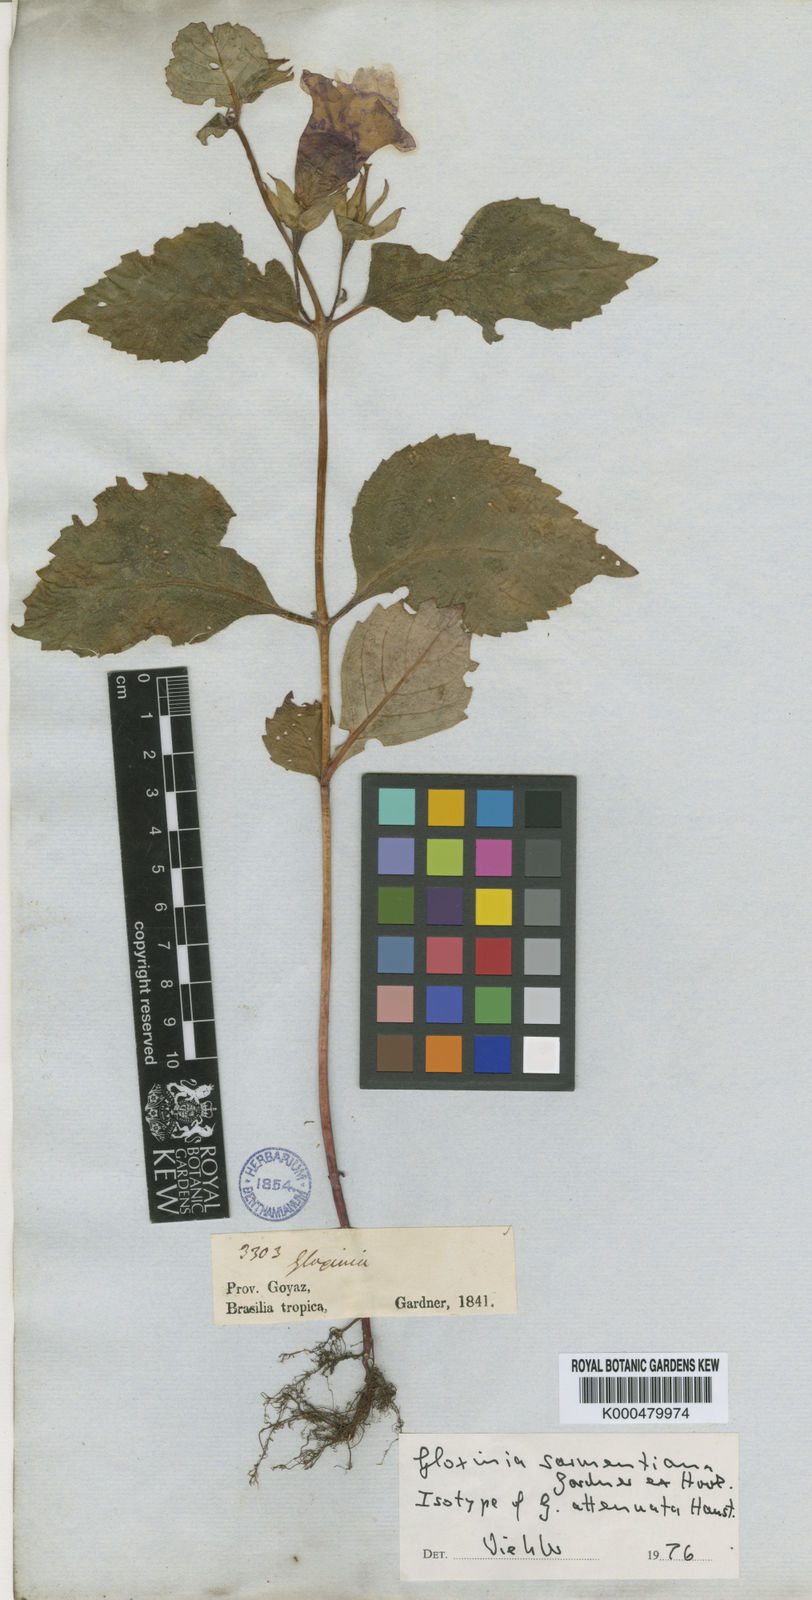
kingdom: Plantae
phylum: Tracheophyta
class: Magnoliopsida
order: Lamiales
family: Gesneriaceae
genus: Sphaerorrhiza
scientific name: Sphaerorrhiza sarmentiana
